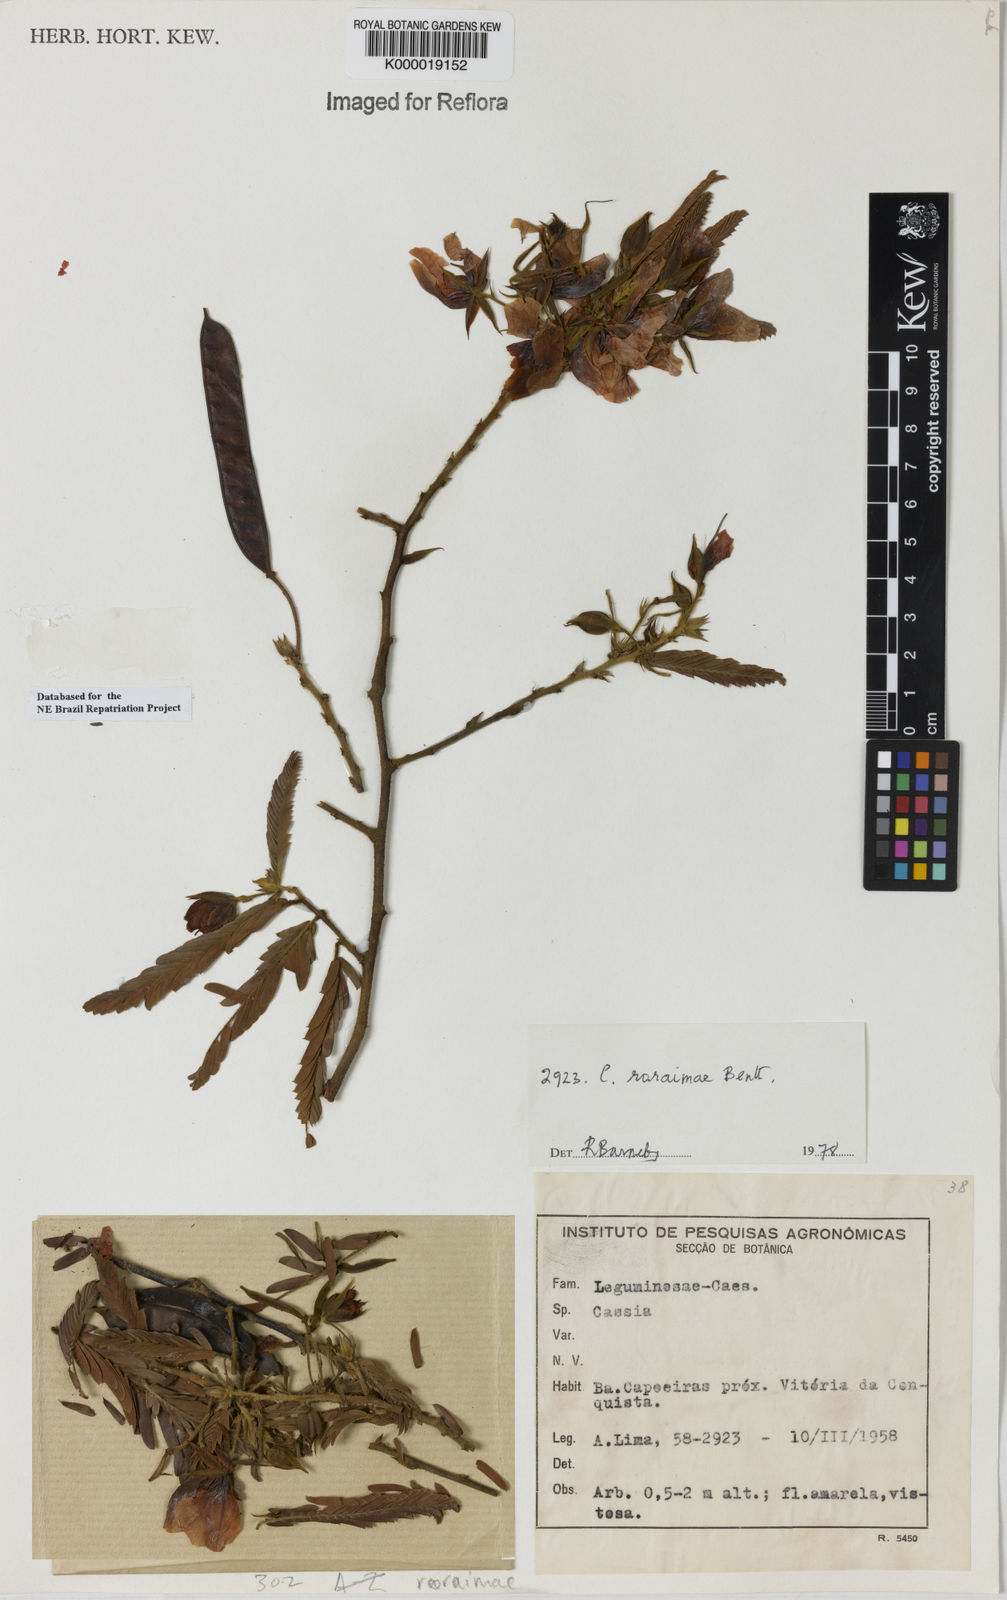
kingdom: Plantae
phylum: Tracheophyta
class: Magnoliopsida
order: Fabales
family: Fabaceae
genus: Chamaecrista
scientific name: Chamaecrista roraimae
